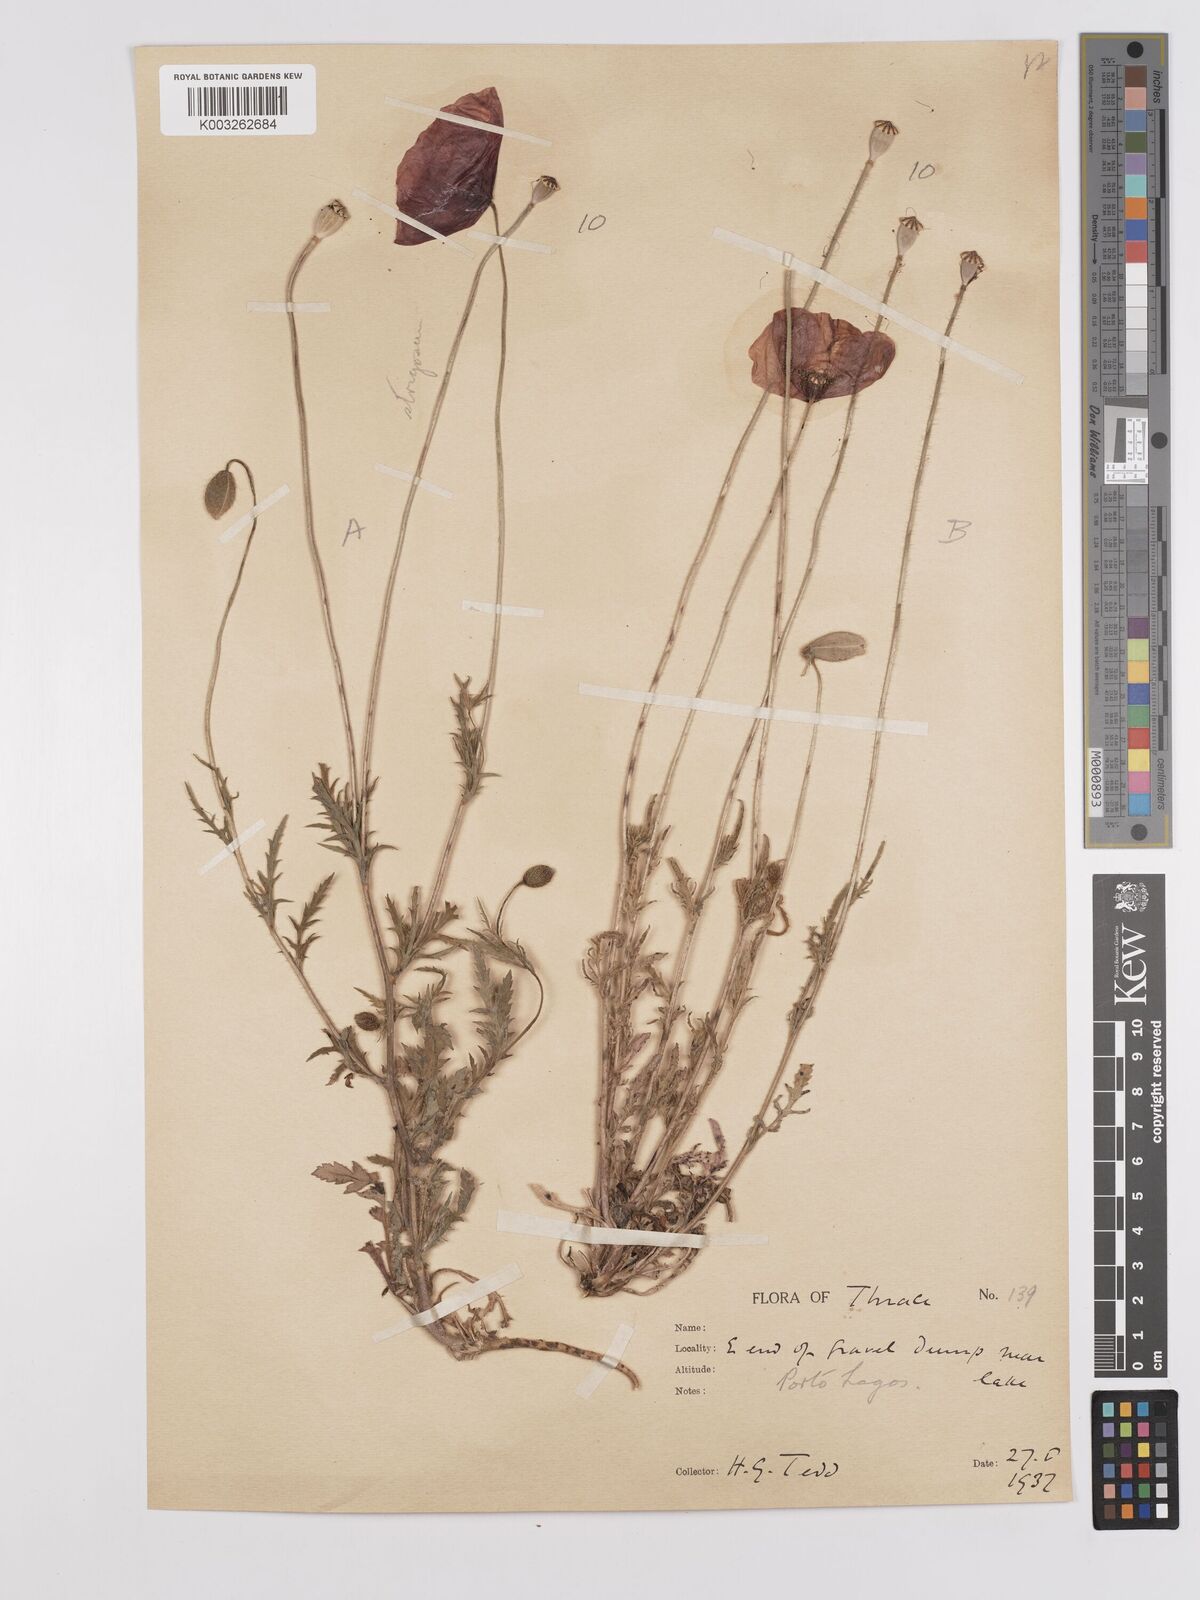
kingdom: Plantae
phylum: Tracheophyta
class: Magnoliopsida
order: Ranunculales
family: Papaveraceae
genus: Papaver
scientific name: Papaver
